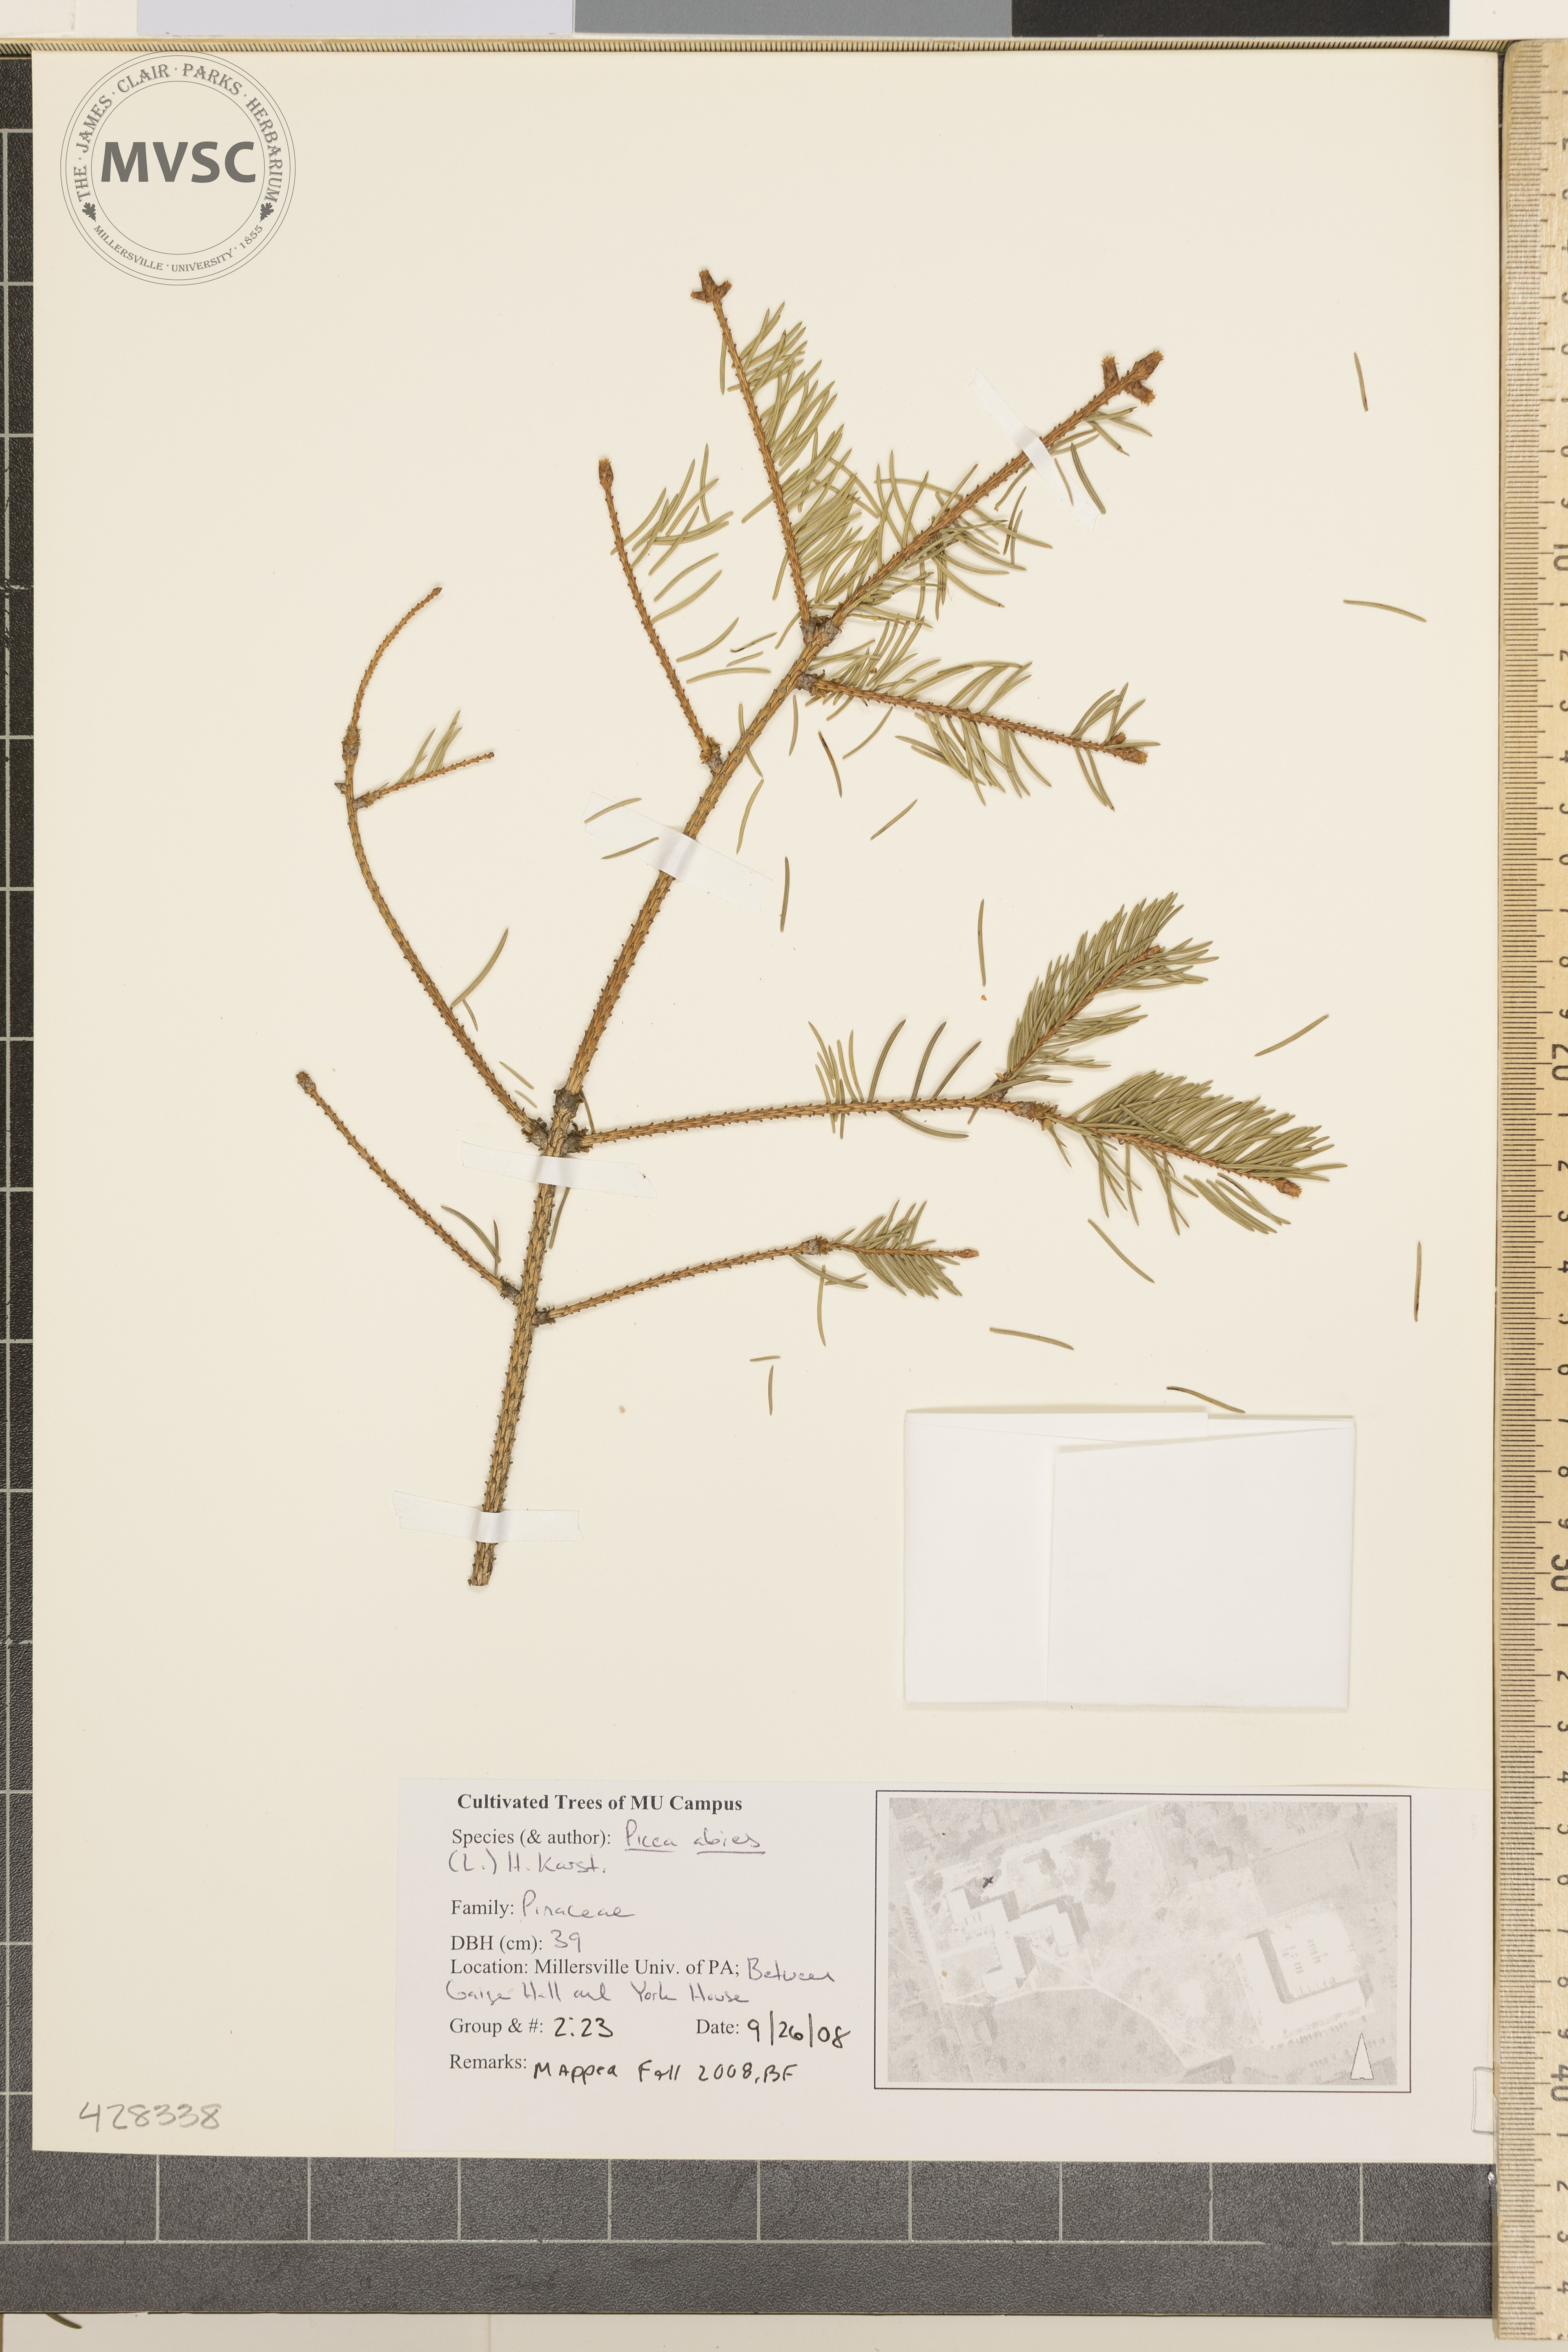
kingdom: Plantae
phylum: Tracheophyta
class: Pinopsida
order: Pinales
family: Pinaceae
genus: Picea
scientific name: Picea abies
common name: Norway Spruce
